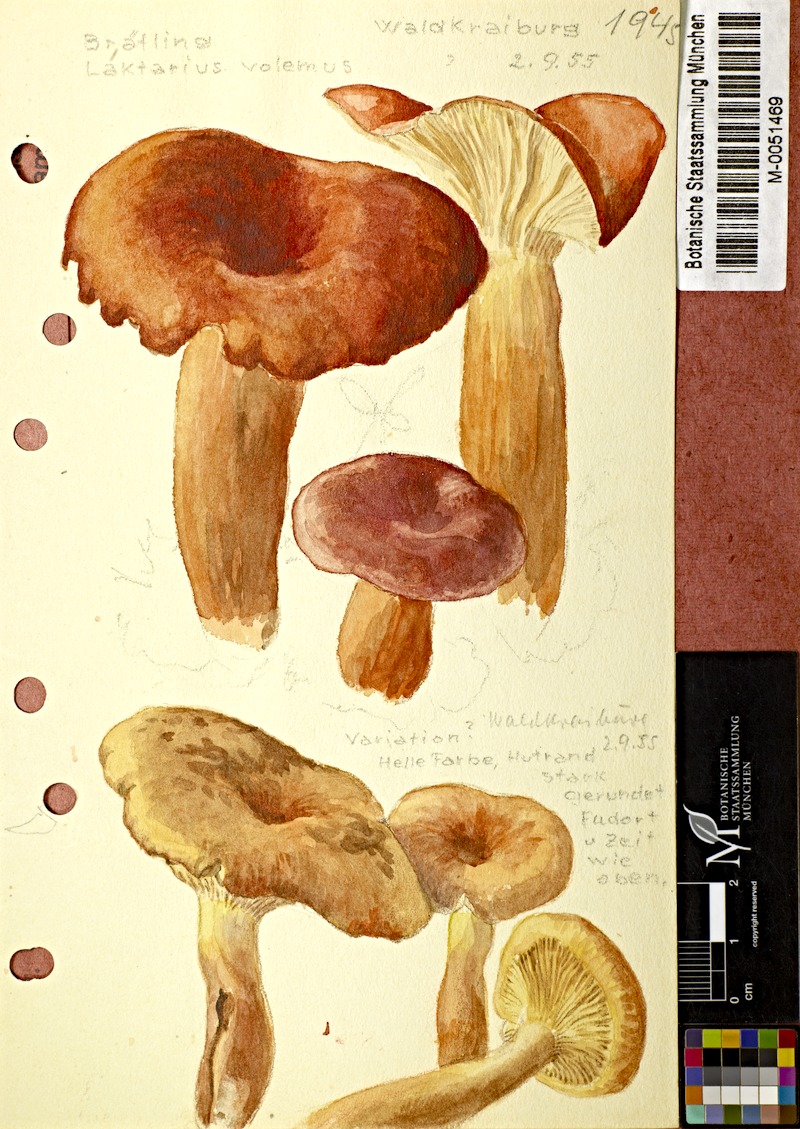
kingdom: Fungi
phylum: Basidiomycota
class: Agaricomycetes
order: Russulales
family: Russulaceae
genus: Lactifluus
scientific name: Lactifluus volemus
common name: Fishy milkcap
